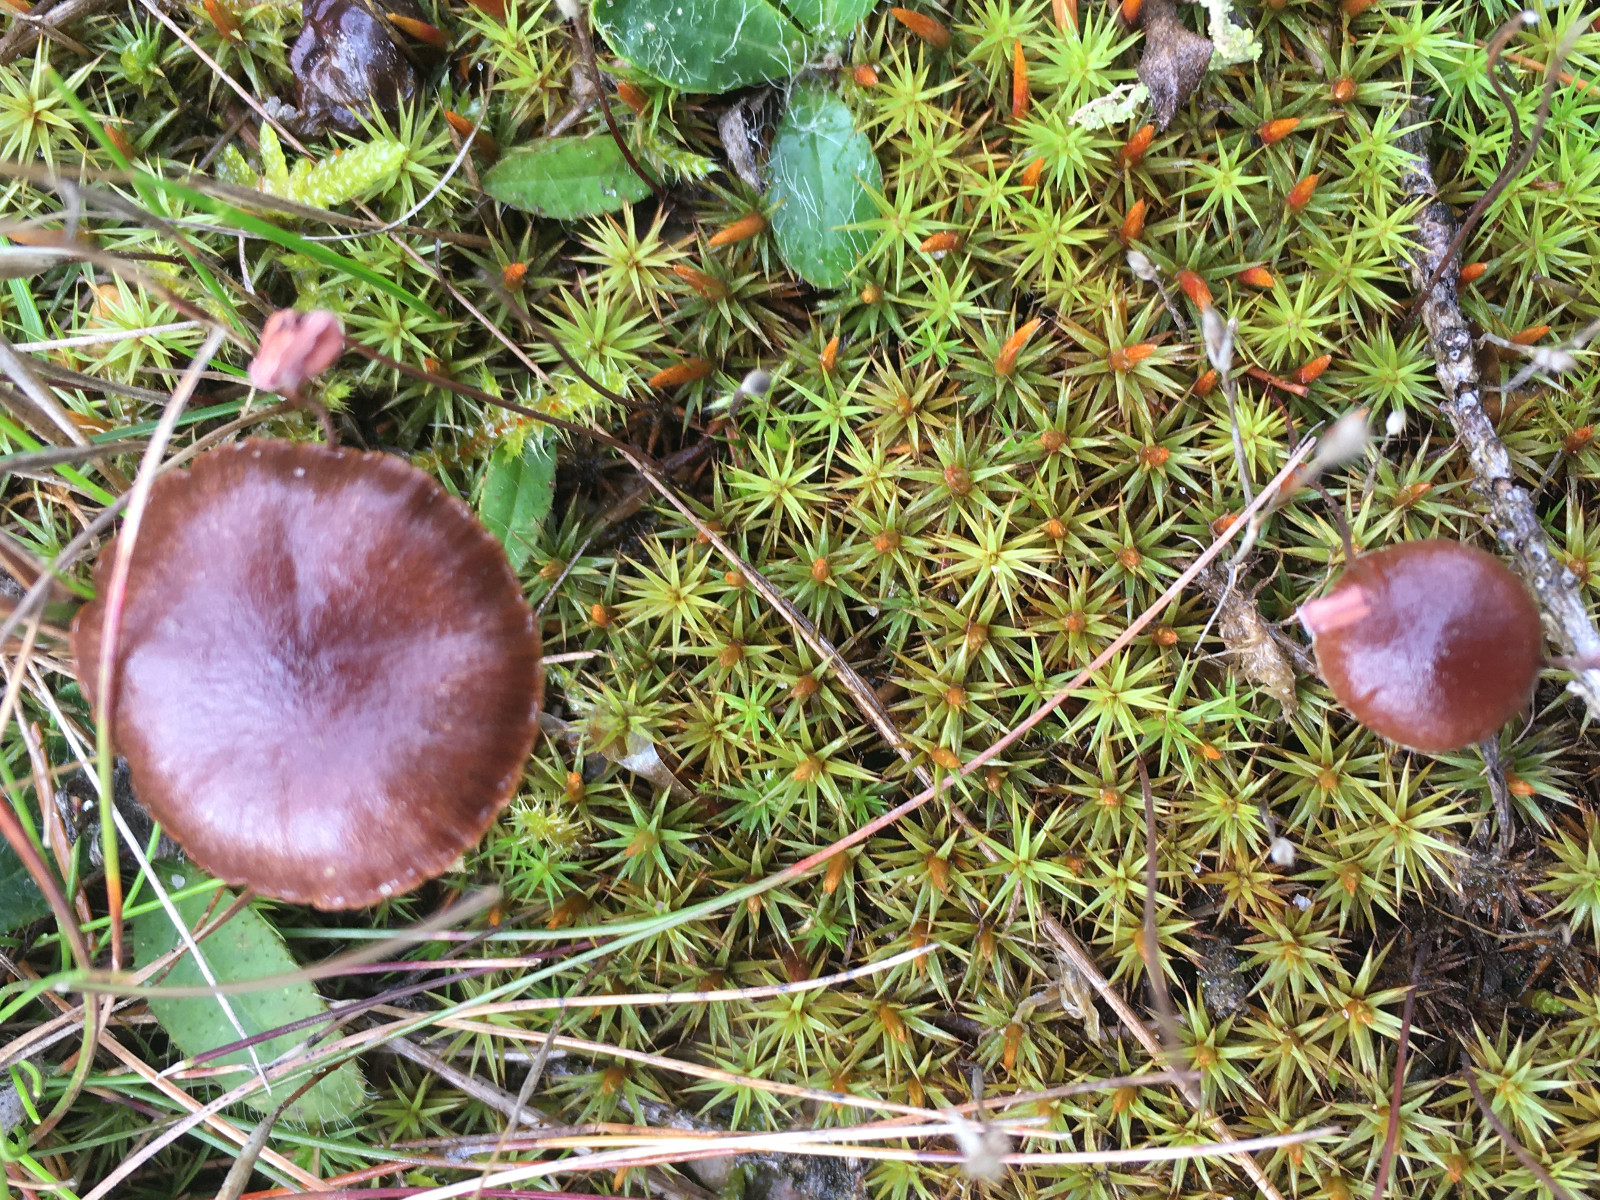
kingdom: Fungi
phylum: Basidiomycota
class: Agaricomycetes
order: Agaricales
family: Strophariaceae
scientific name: Strophariaceae
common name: bredbladfamilien
